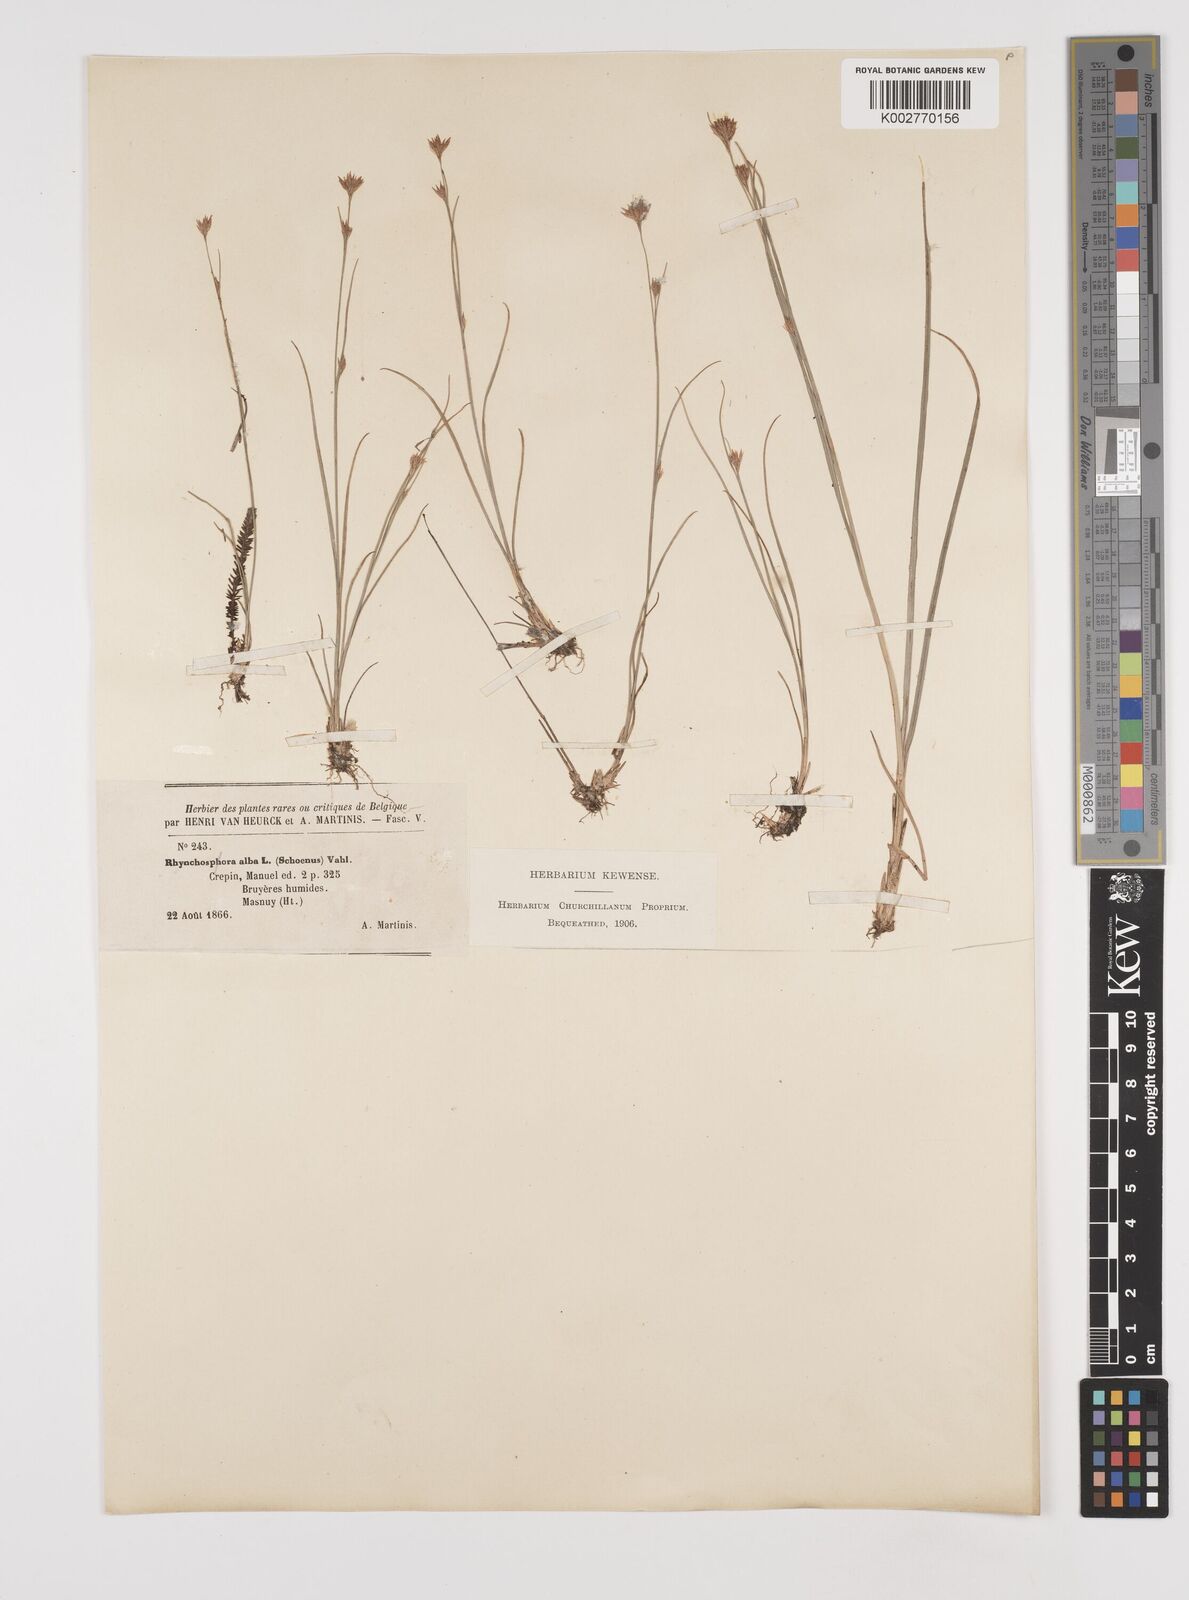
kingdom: Plantae
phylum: Tracheophyta
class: Liliopsida
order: Poales
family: Cyperaceae
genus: Rhynchospora
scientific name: Rhynchospora alba
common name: White beak-sedge
